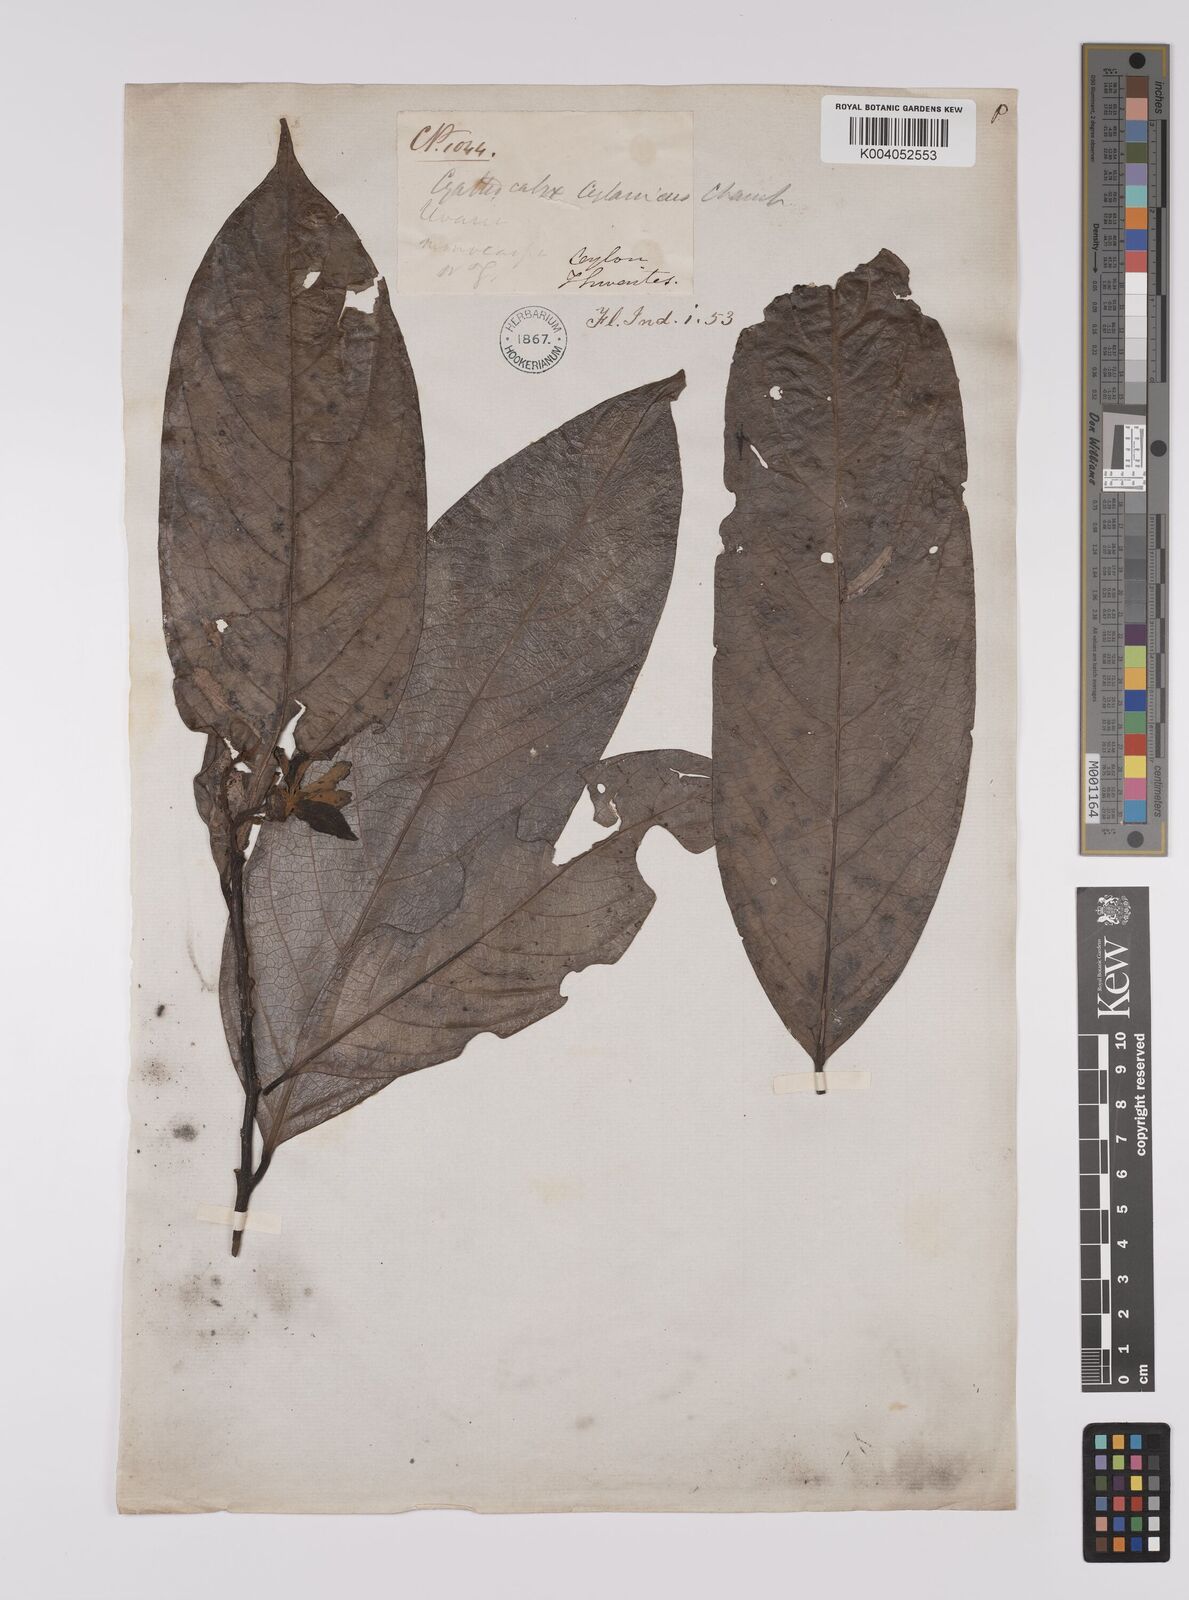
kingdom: Plantae
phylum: Tracheophyta
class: Magnoliopsida
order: Magnoliales
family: Annonaceae
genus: Cyathocalyx
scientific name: Cyathocalyx zeylanicus
